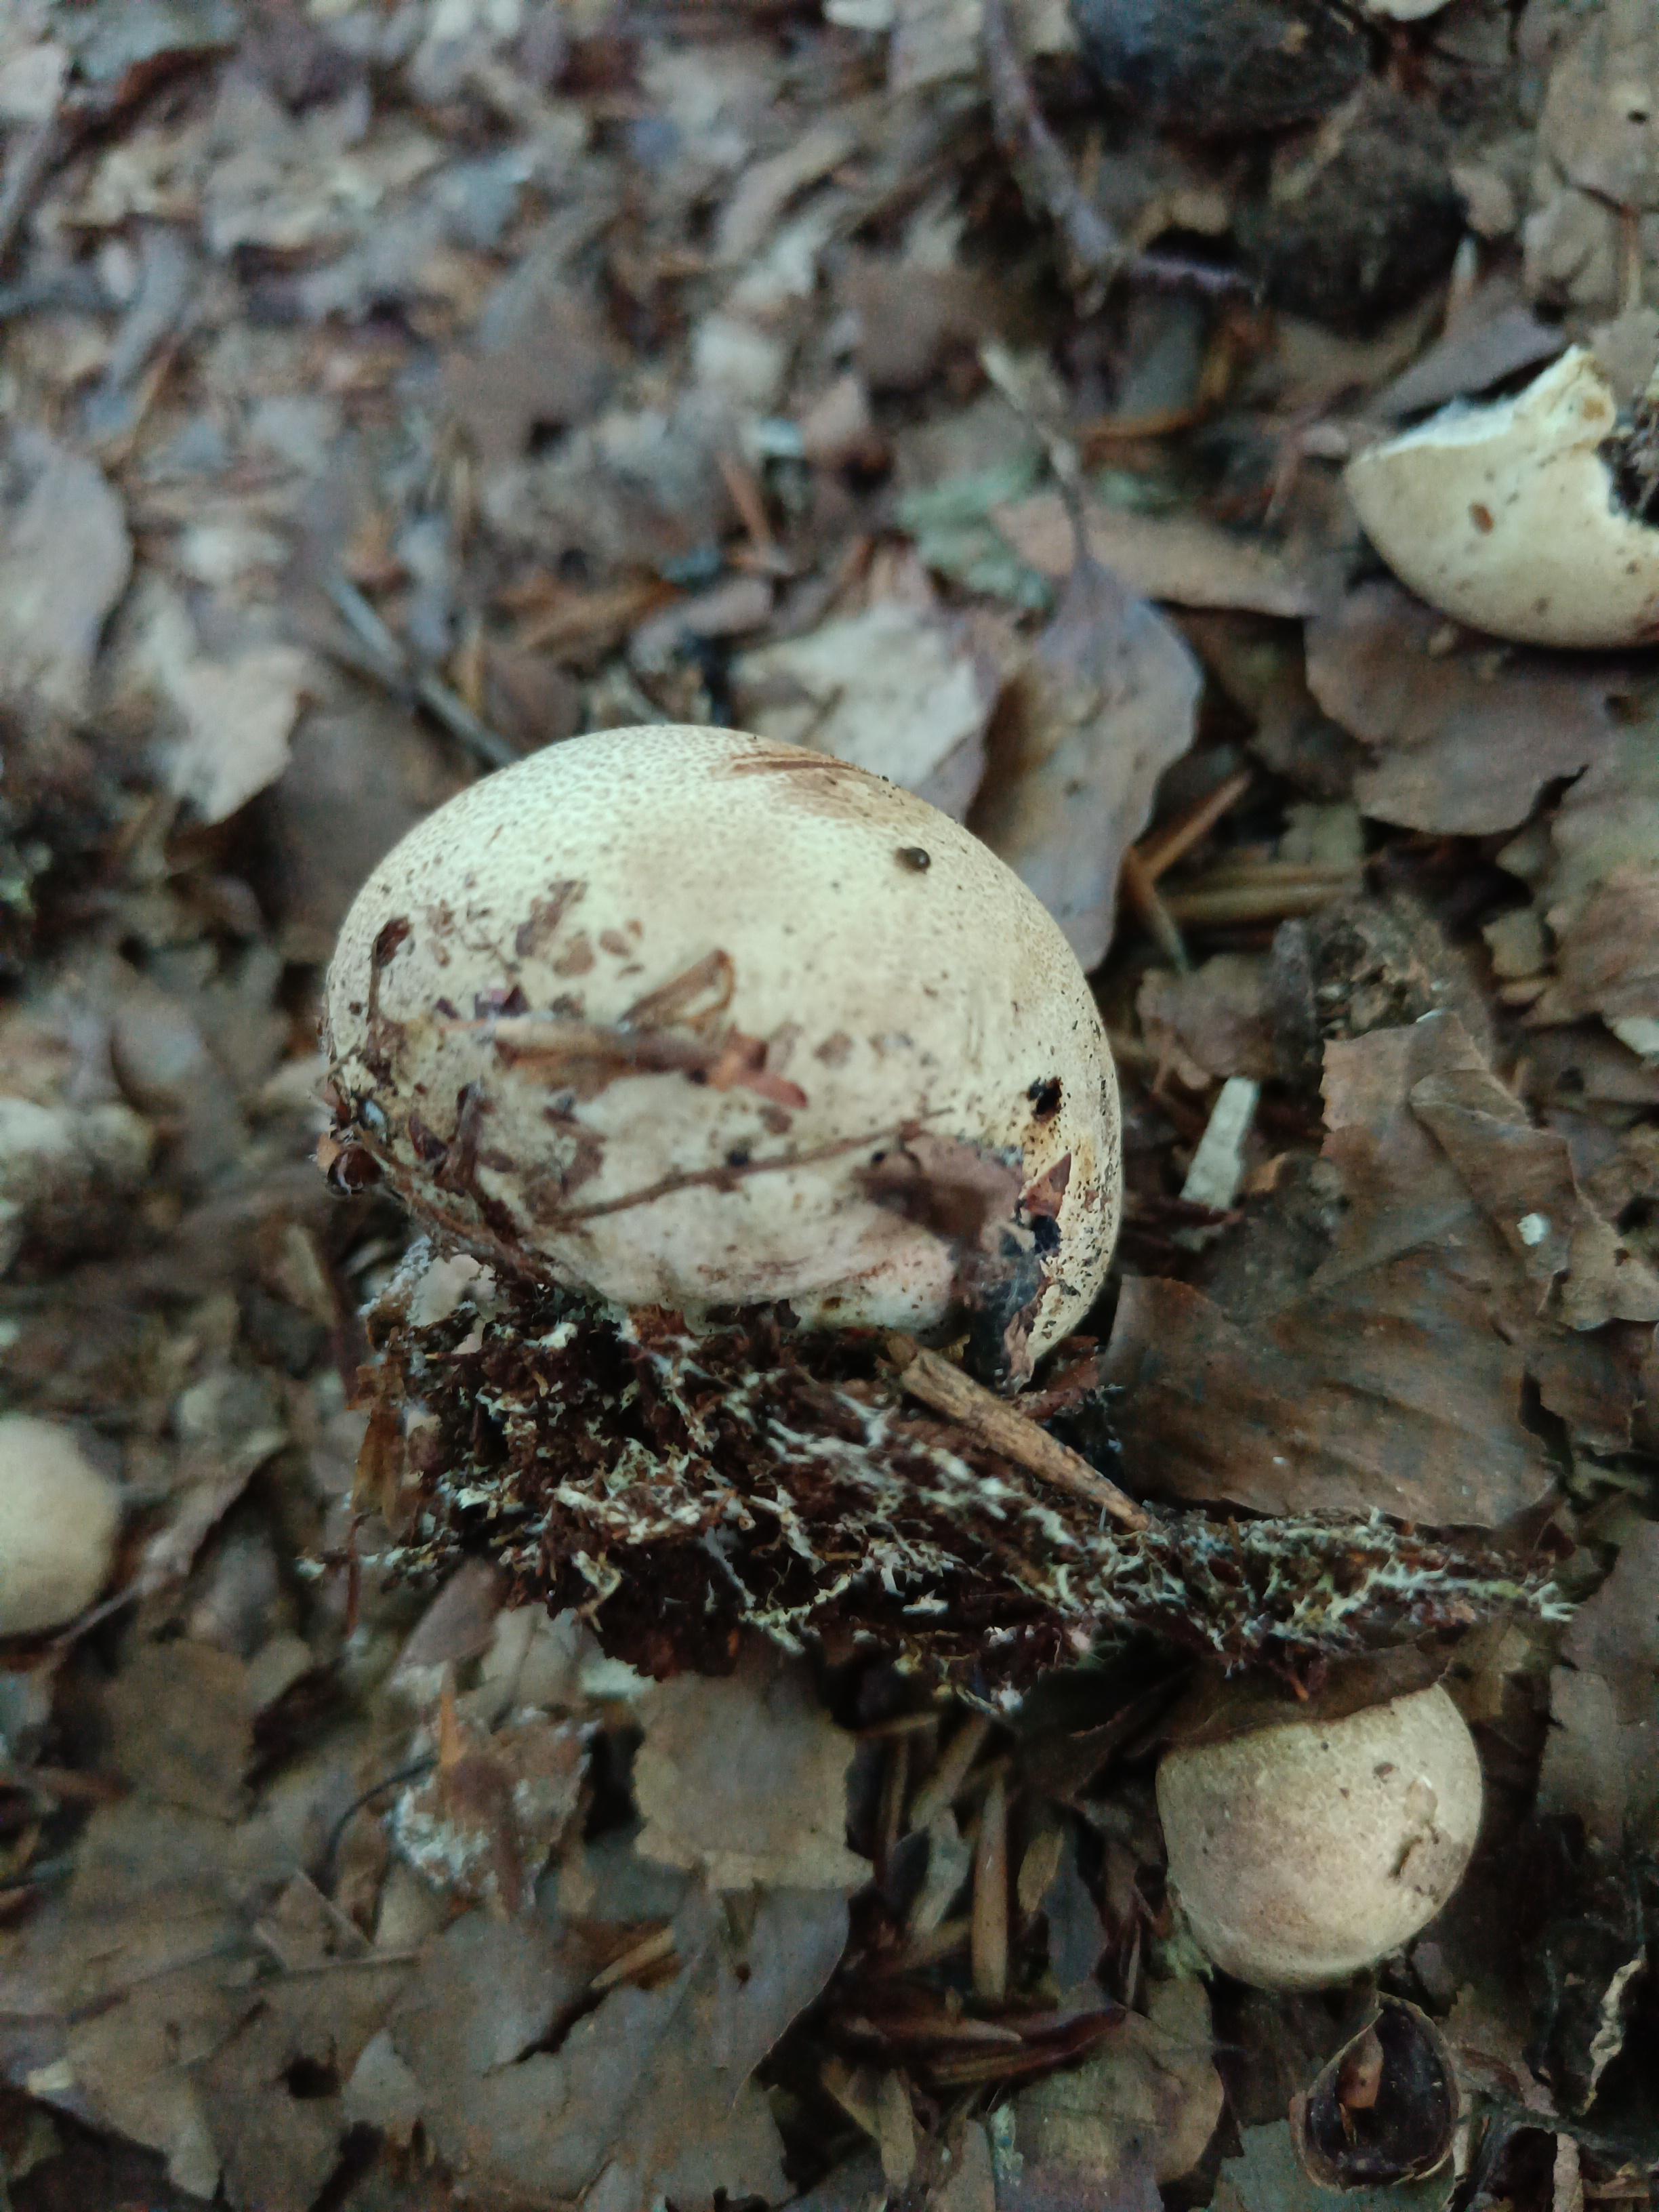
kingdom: Fungi
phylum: Basidiomycota
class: Agaricomycetes
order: Boletales
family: Sclerodermataceae
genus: Scleroderma
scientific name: Scleroderma citrinum
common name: almindelig bruskbold
